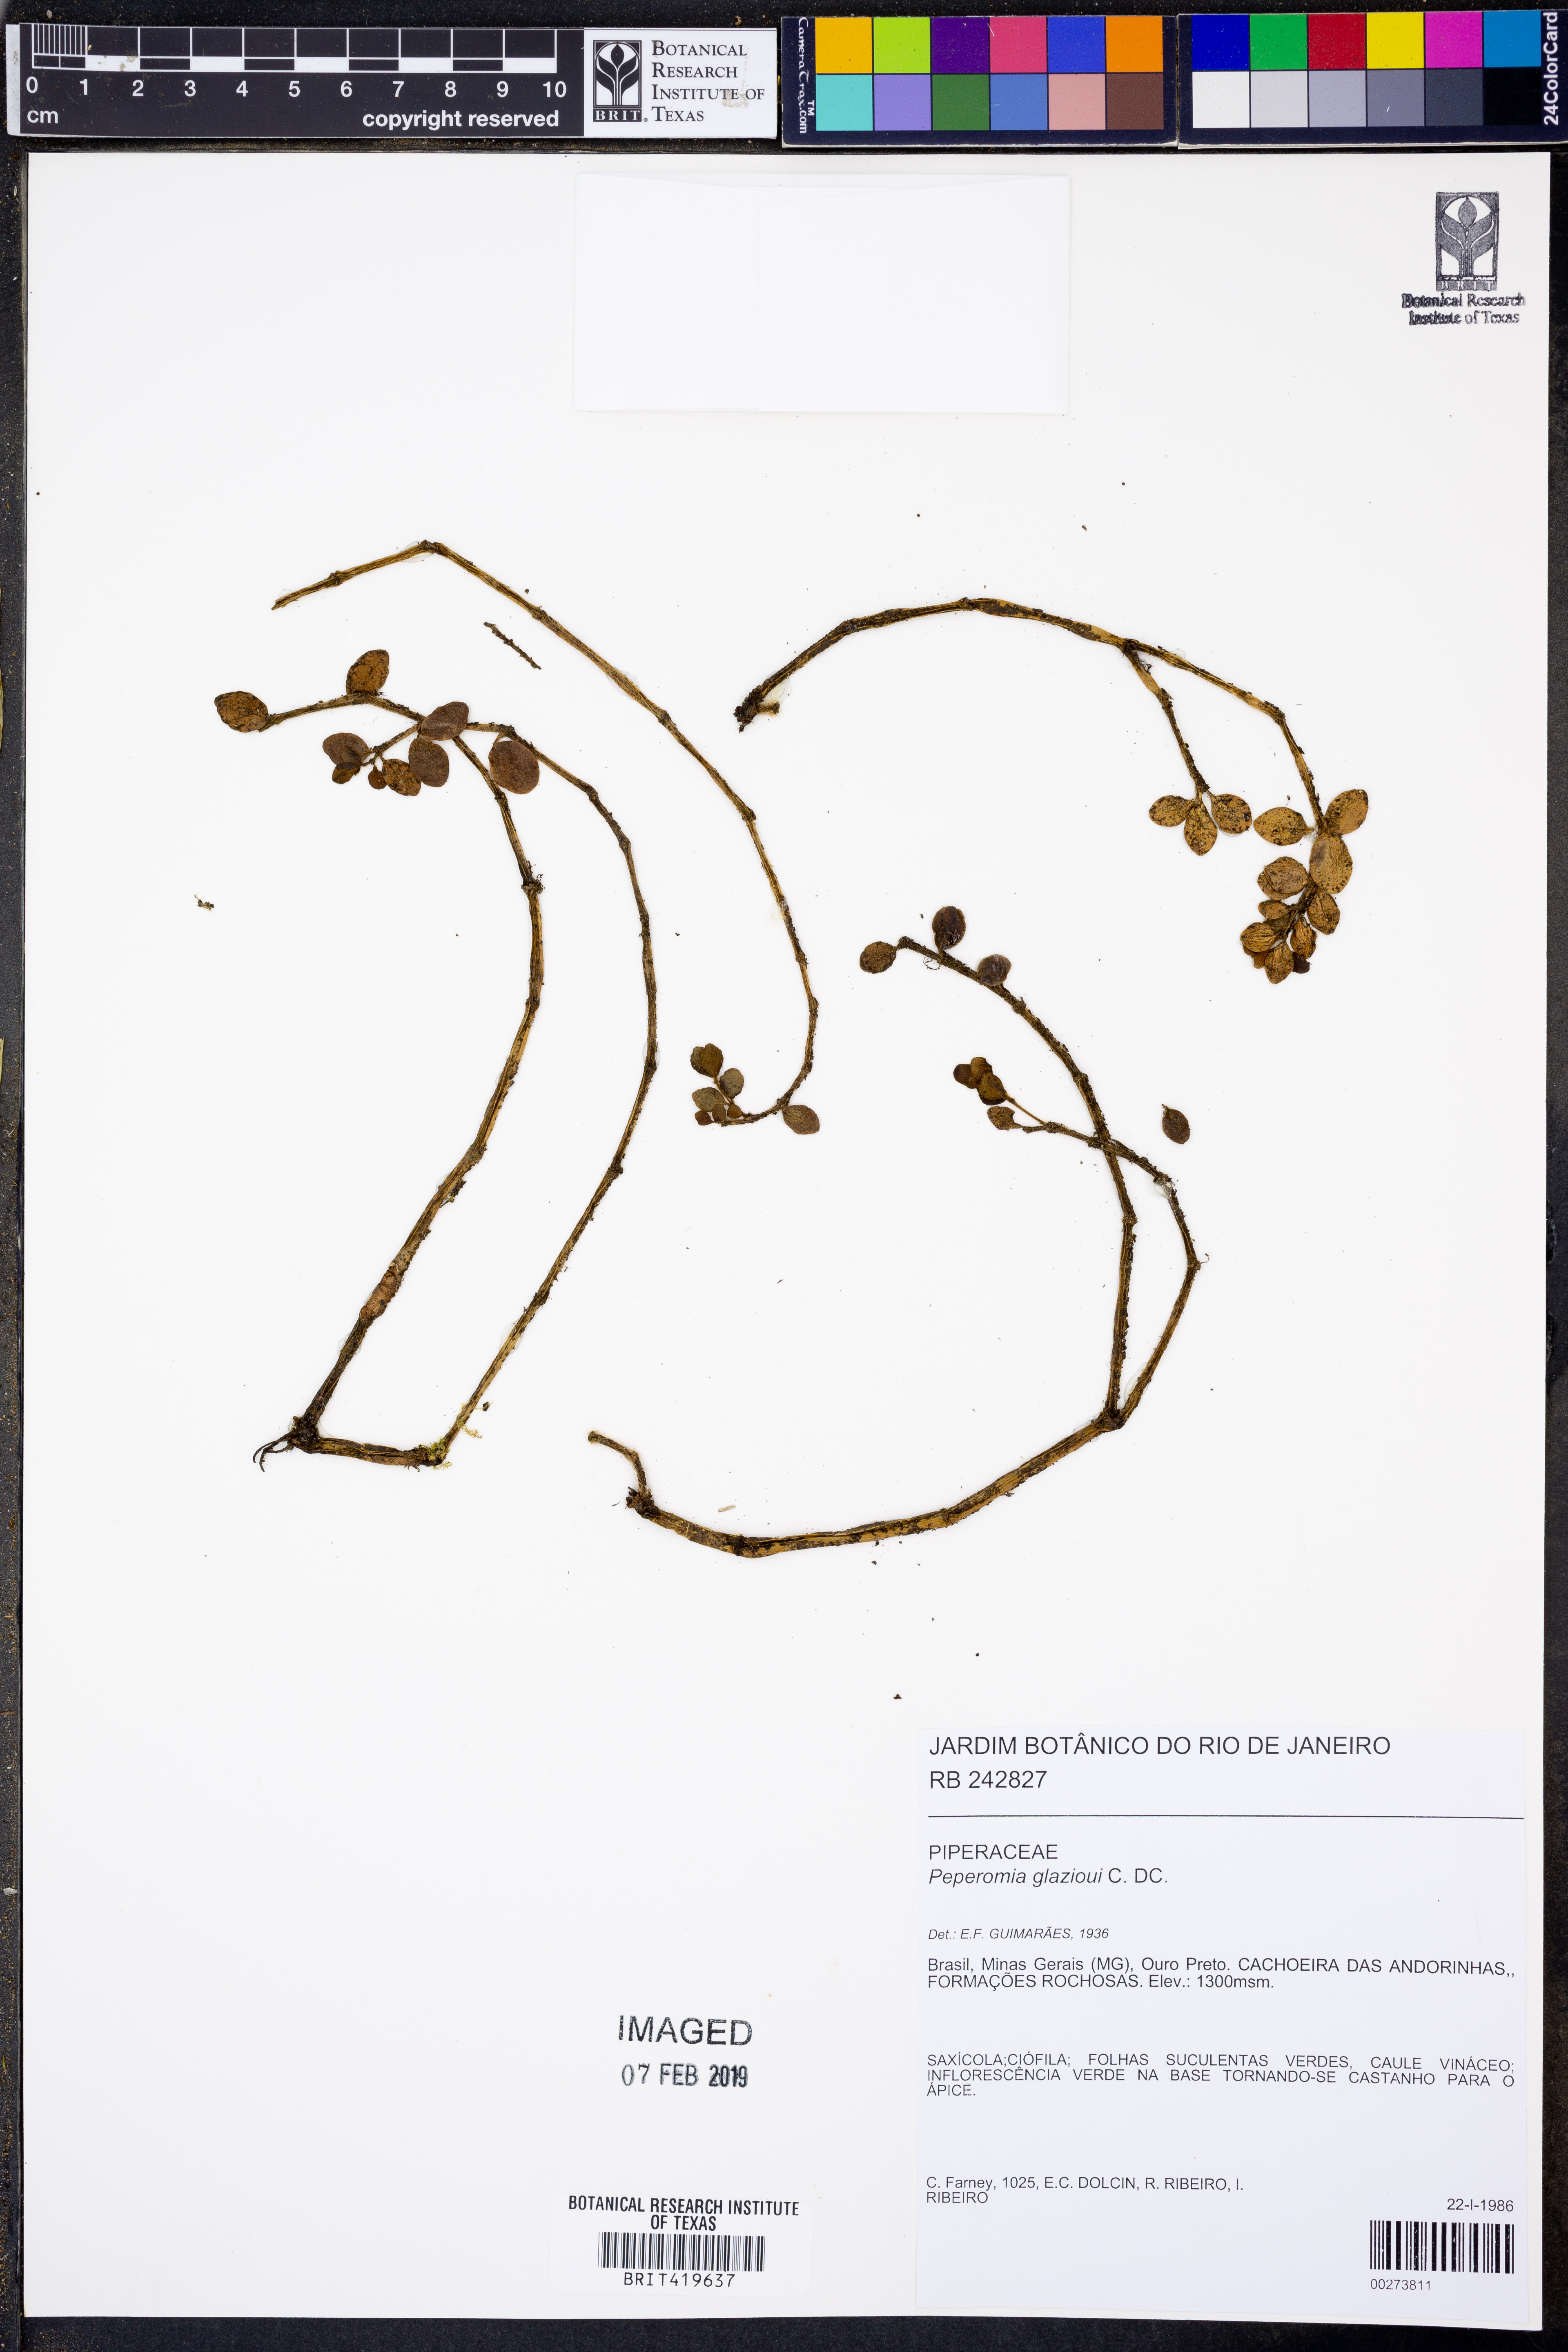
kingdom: Plantae
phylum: Tracheophyta
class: Magnoliopsida
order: Piperales
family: Piperaceae
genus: Peperomia
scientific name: Peperomia glazioui
